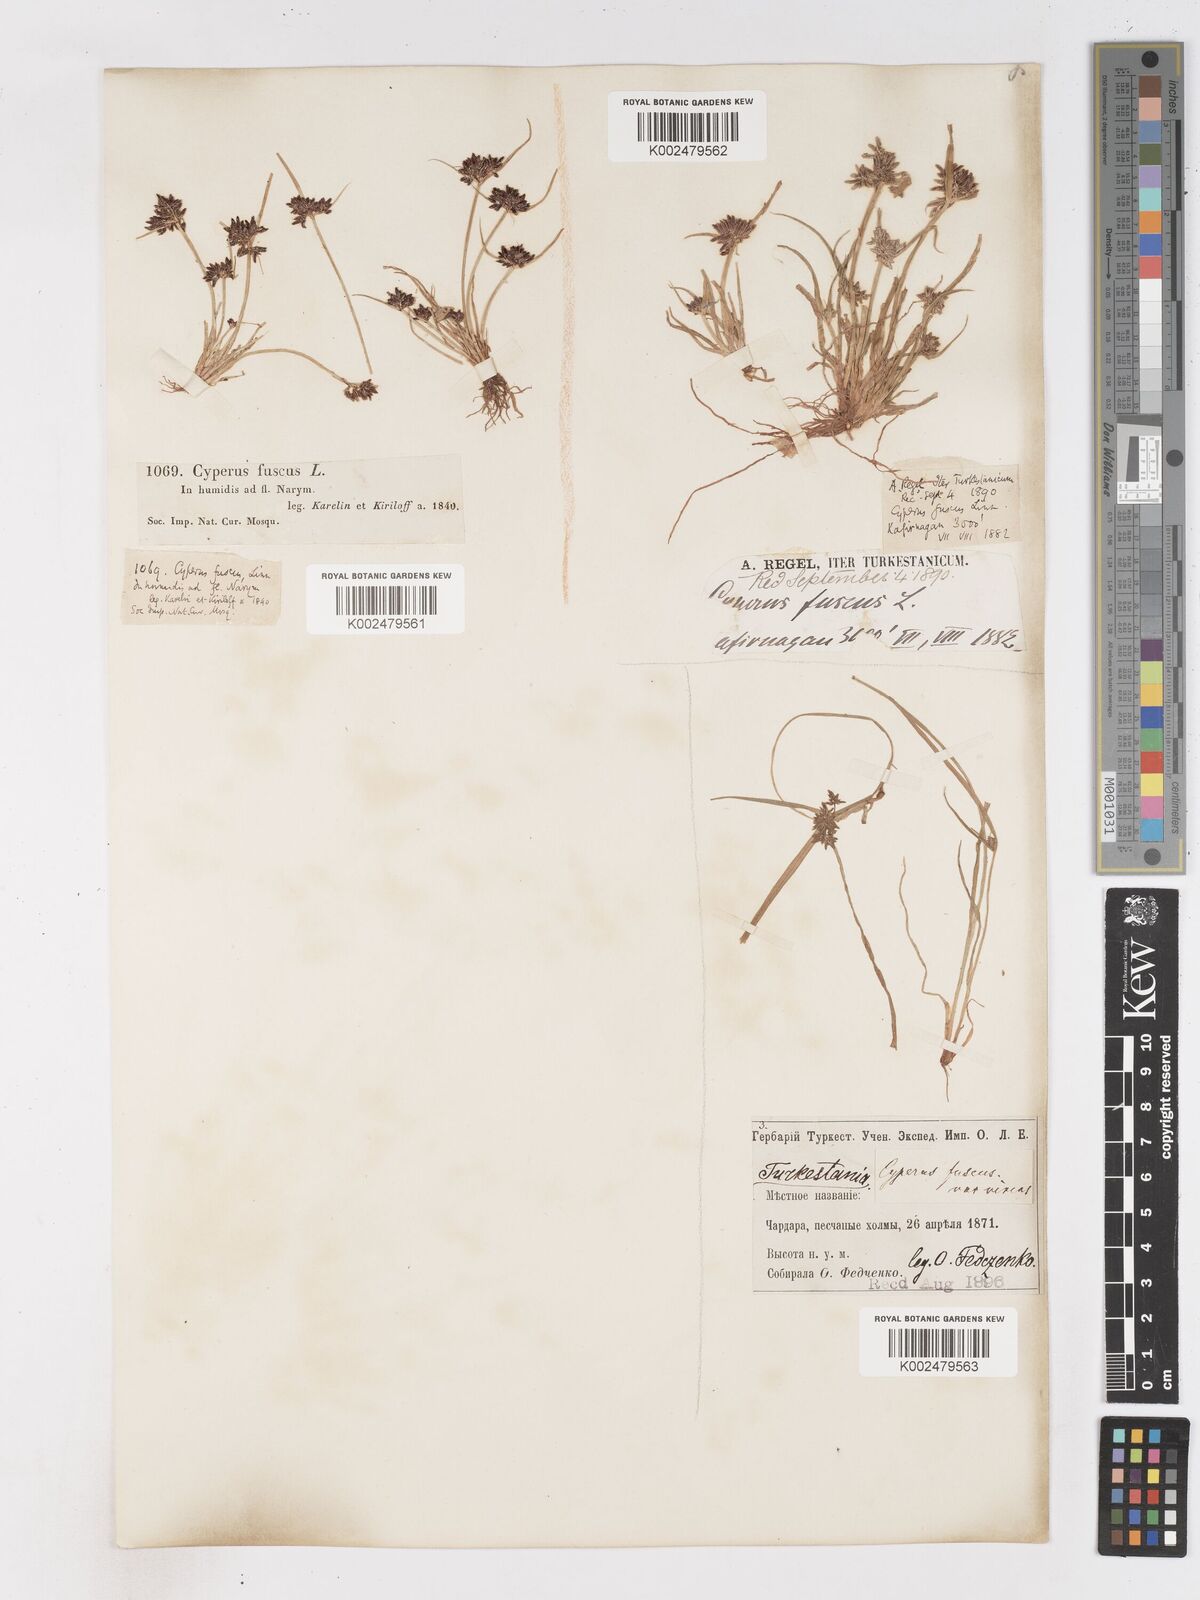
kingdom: Plantae
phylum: Tracheophyta
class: Liliopsida
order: Poales
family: Cyperaceae
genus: Cyperus
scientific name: Cyperus fuscus
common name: Brown galingale
